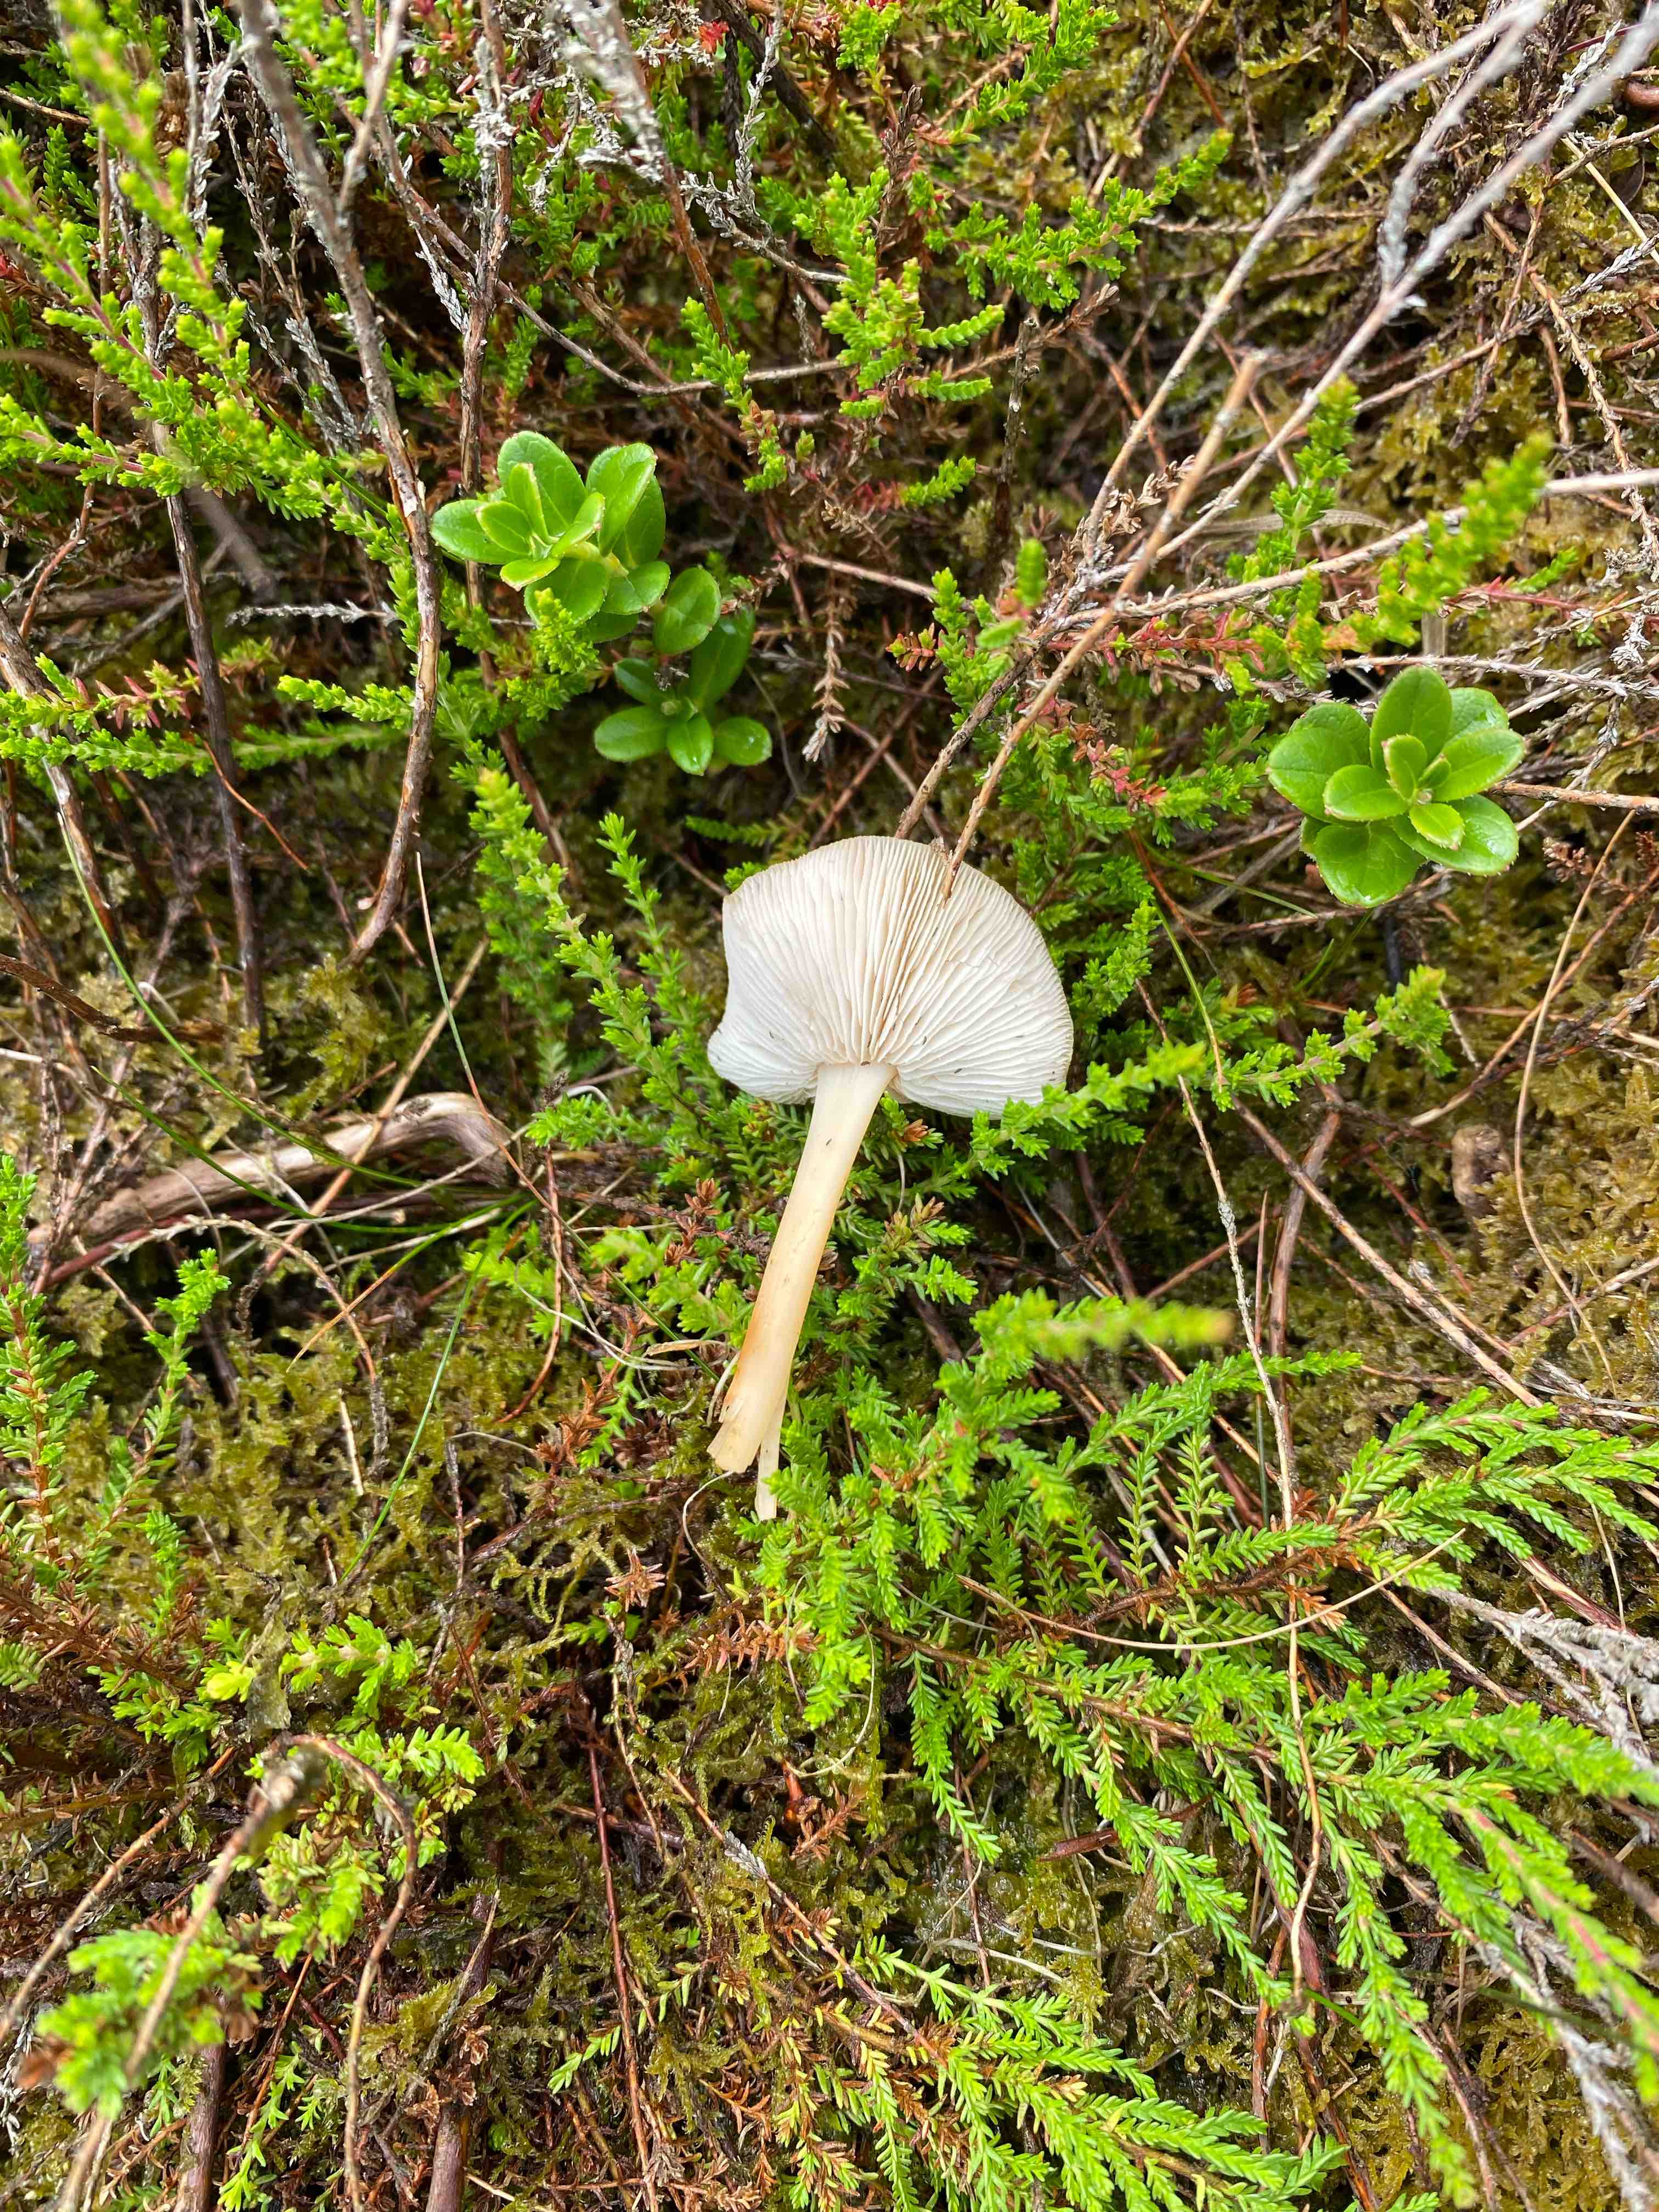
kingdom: Fungi
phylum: Basidiomycota
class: Agaricomycetes
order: Agaricales
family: Omphalotaceae
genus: Gymnopus
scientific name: Gymnopus
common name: fladhat
